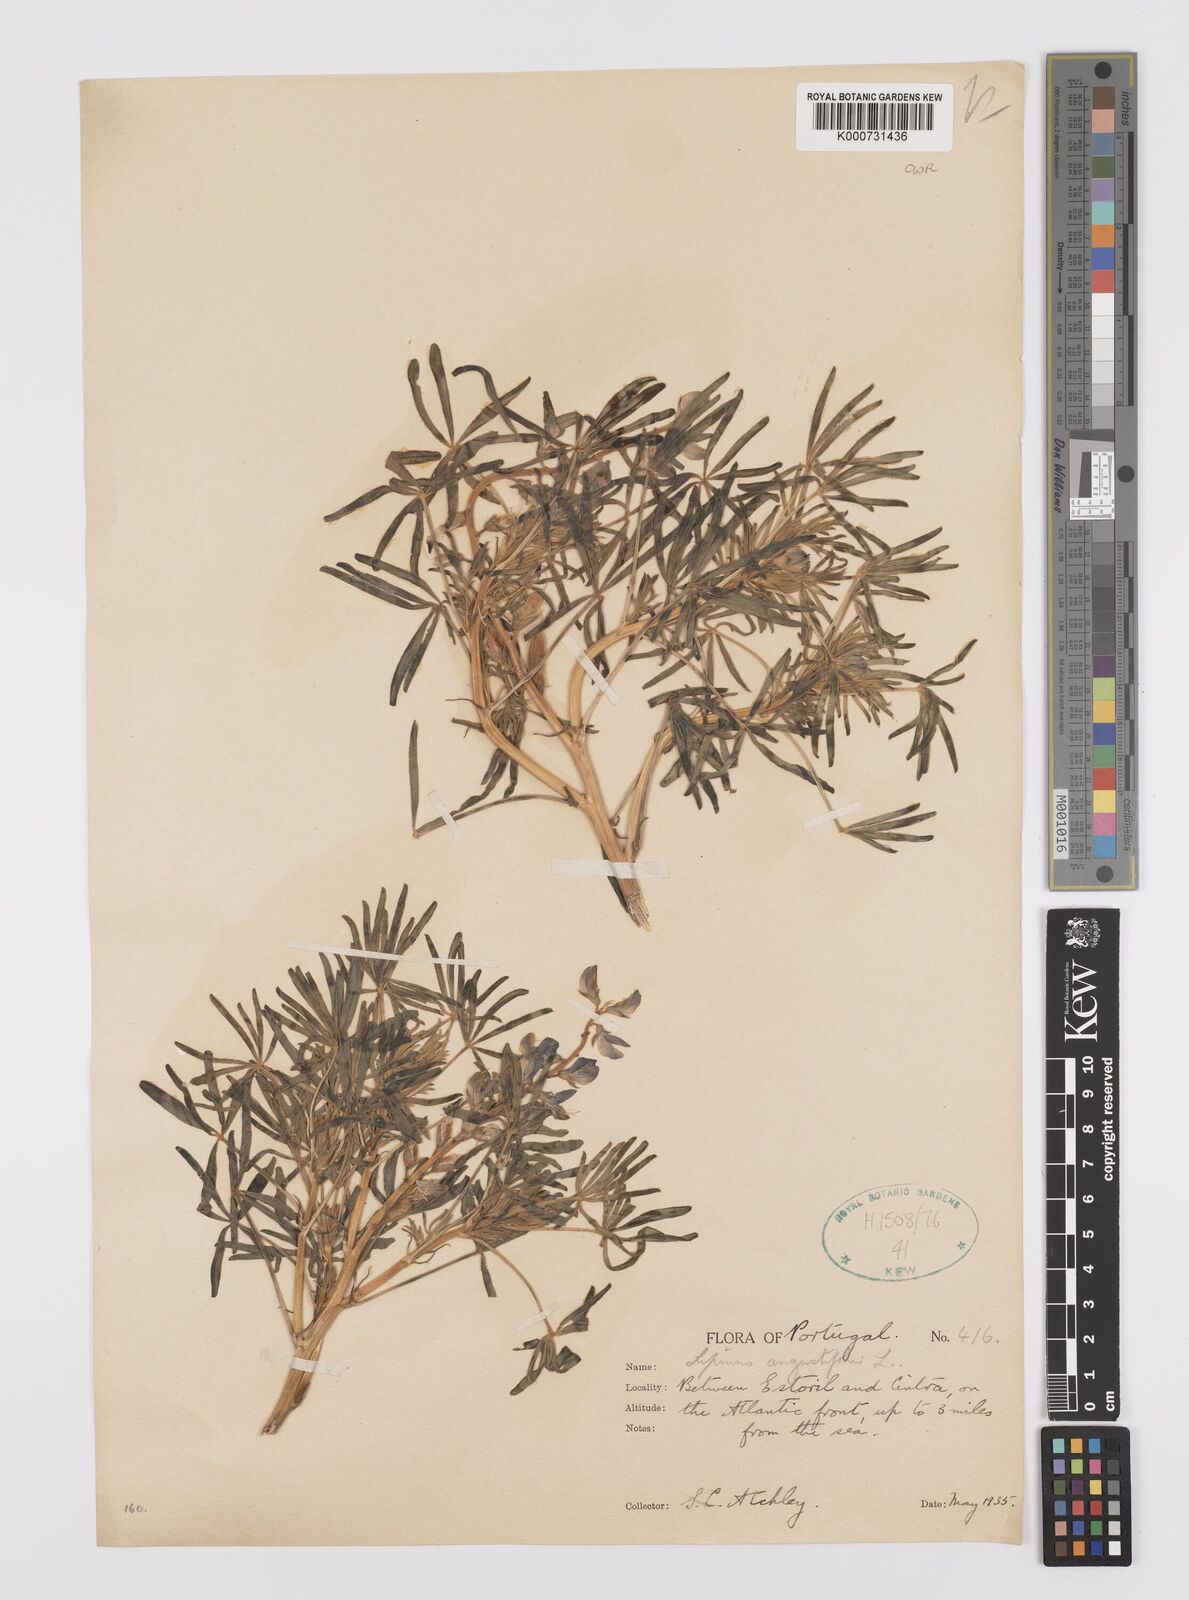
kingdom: Plantae
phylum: Tracheophyta
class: Magnoliopsida
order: Fabales
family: Fabaceae
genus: Lupinus
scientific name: Lupinus angustifolius
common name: Narrow-leaved lupin
